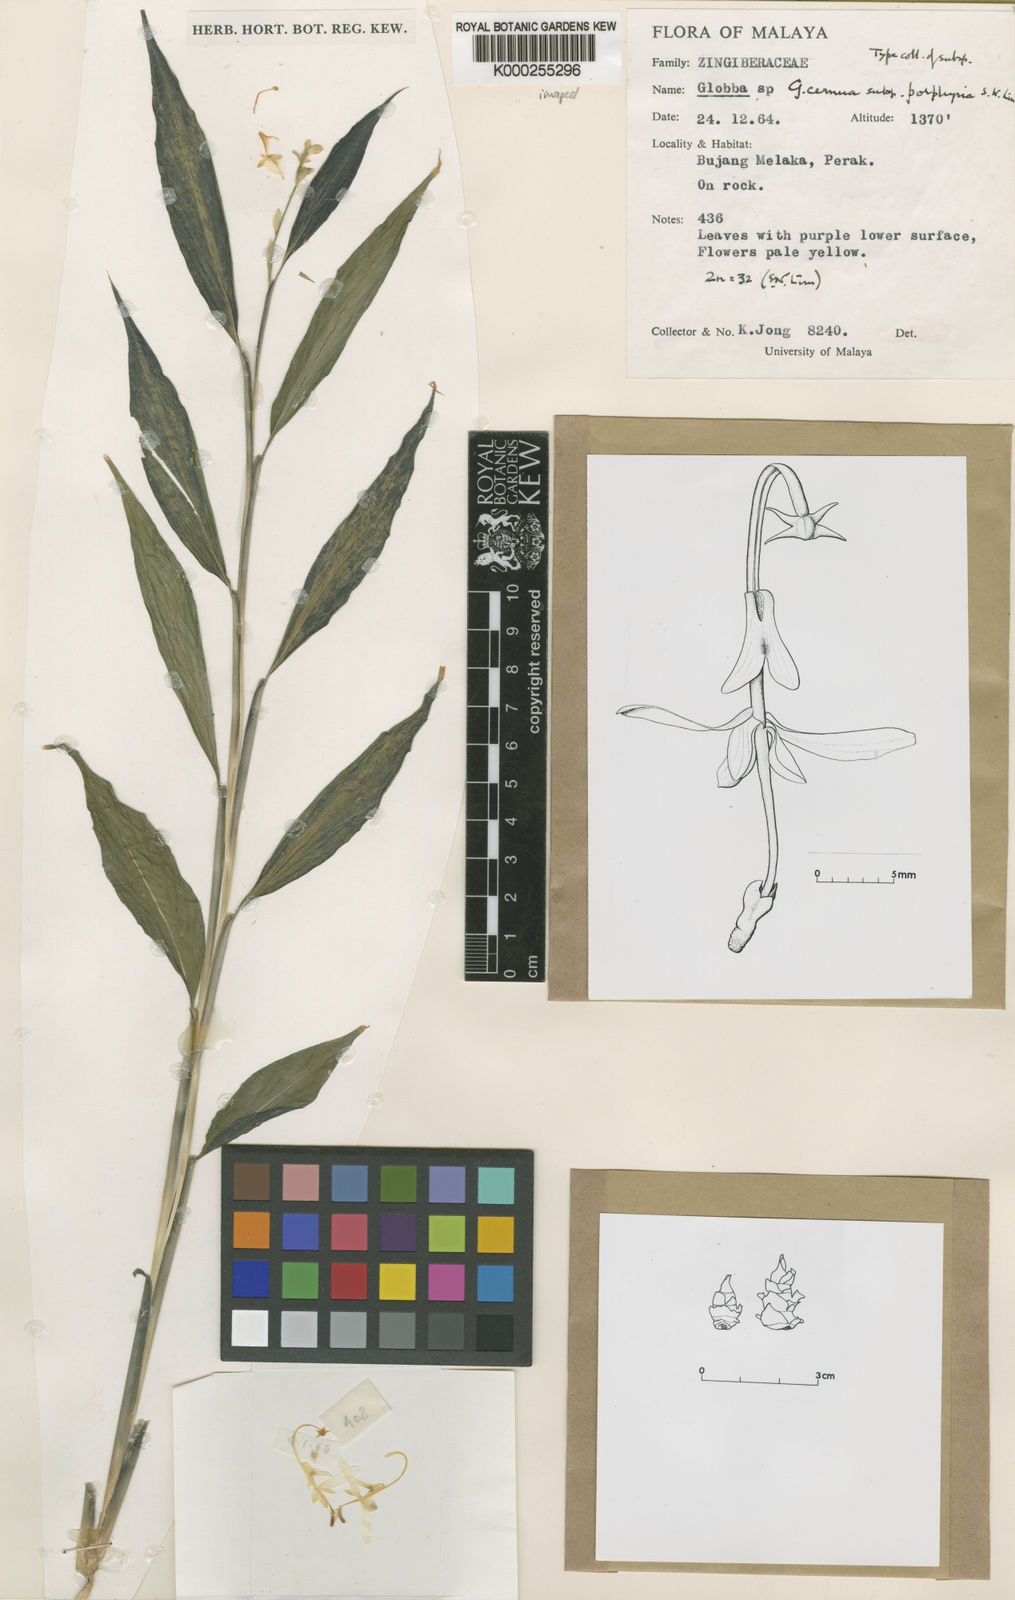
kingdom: Plantae
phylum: Tracheophyta
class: Liliopsida
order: Zingiberales
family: Zingiberaceae
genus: Globba
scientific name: Globba cernua
